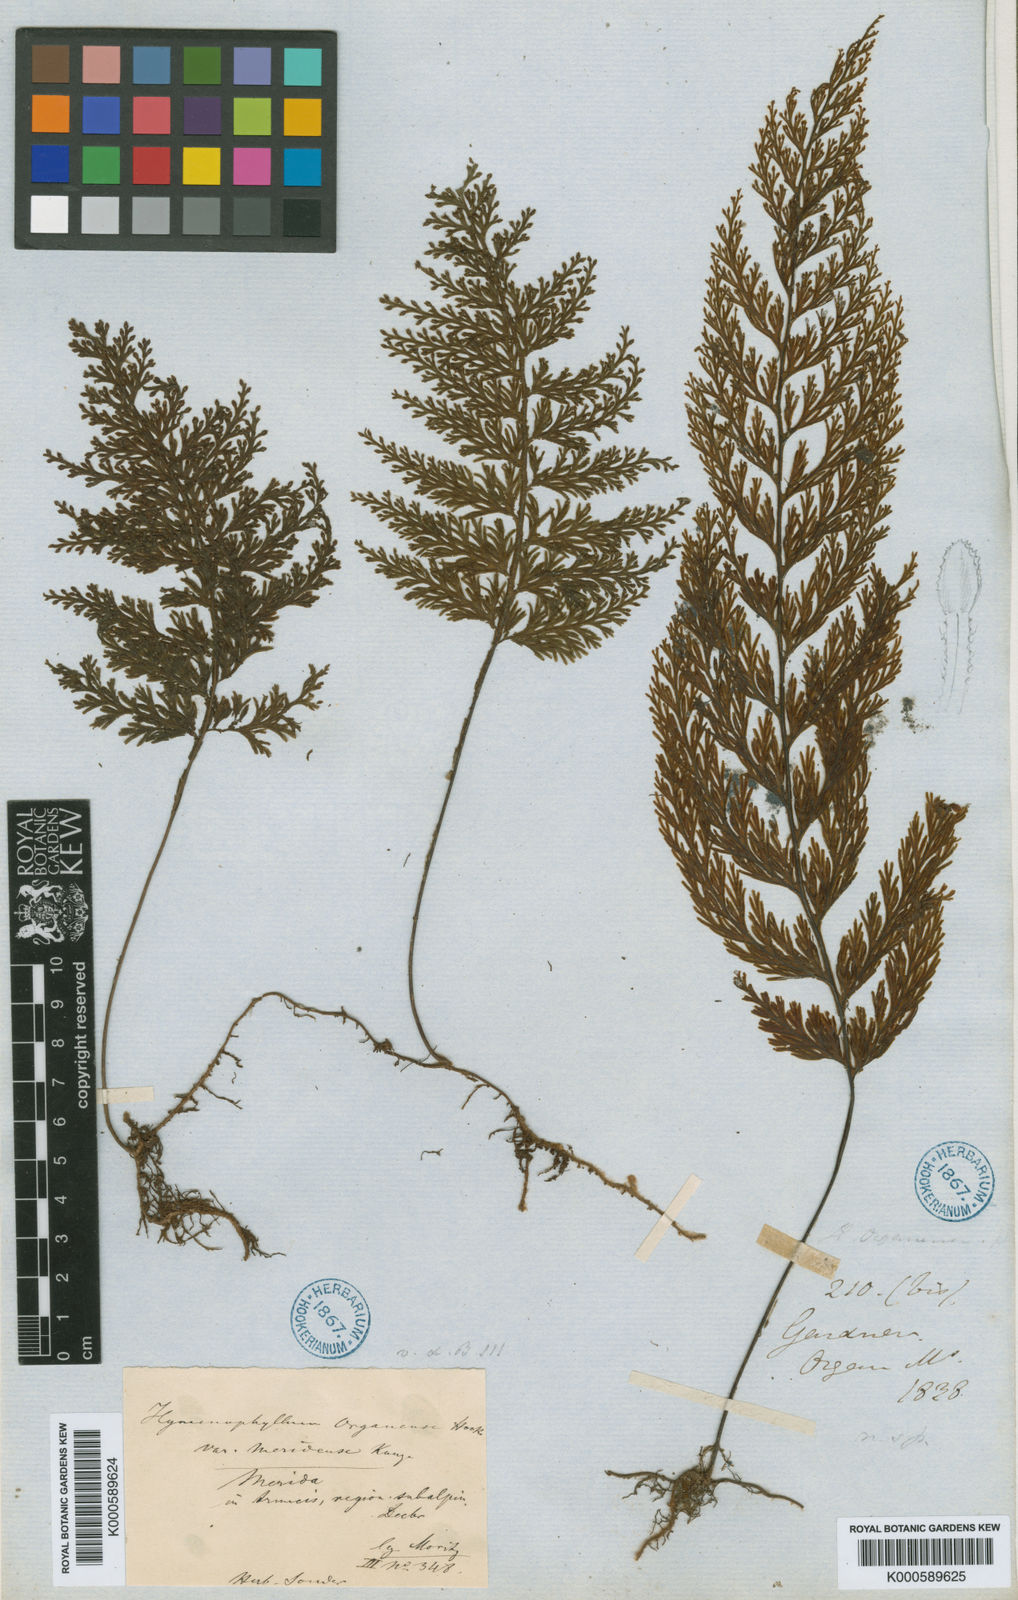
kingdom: Plantae
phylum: Tracheophyta
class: Polypodiopsida
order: Hymenophyllales
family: Hymenophyllaceae
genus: Hymenophyllum
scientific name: Hymenophyllum microcarpum
